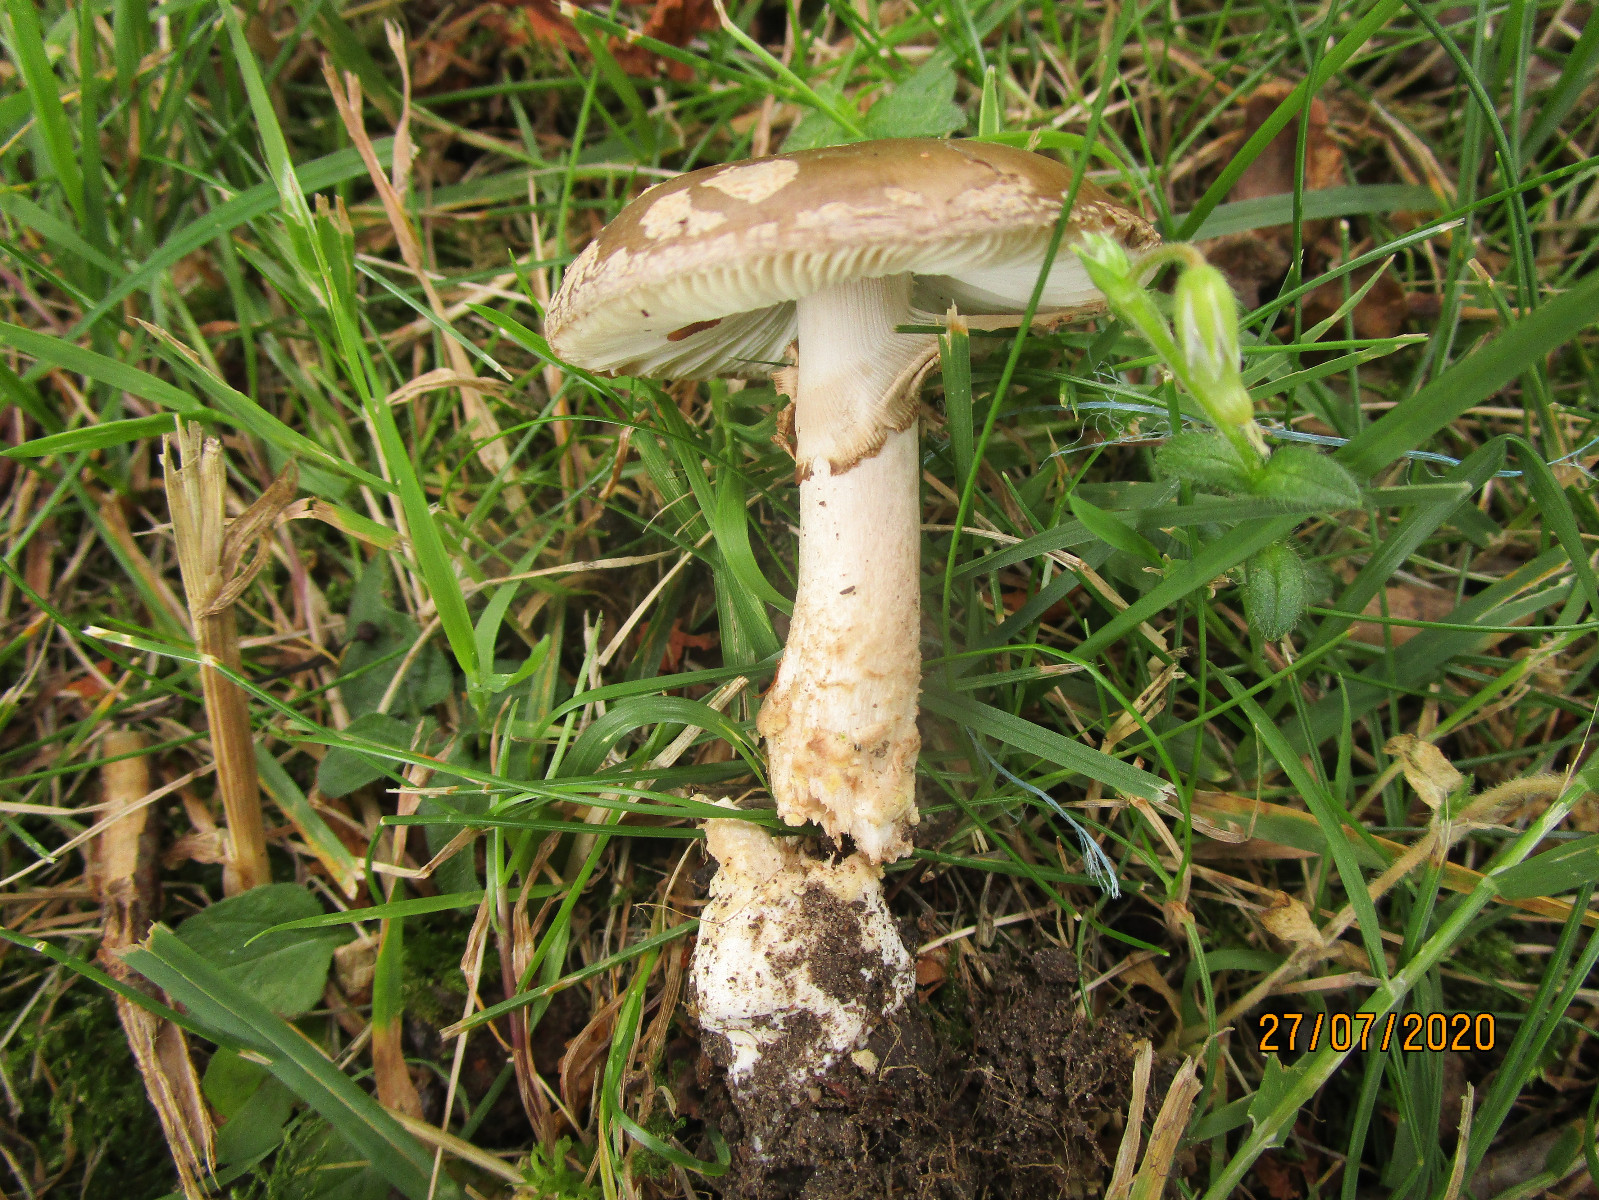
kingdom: Fungi
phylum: Basidiomycota
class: Agaricomycetes
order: Agaricales
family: Amanitaceae
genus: Amanita
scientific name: Amanita pantherina
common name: panter-fluesvamp
